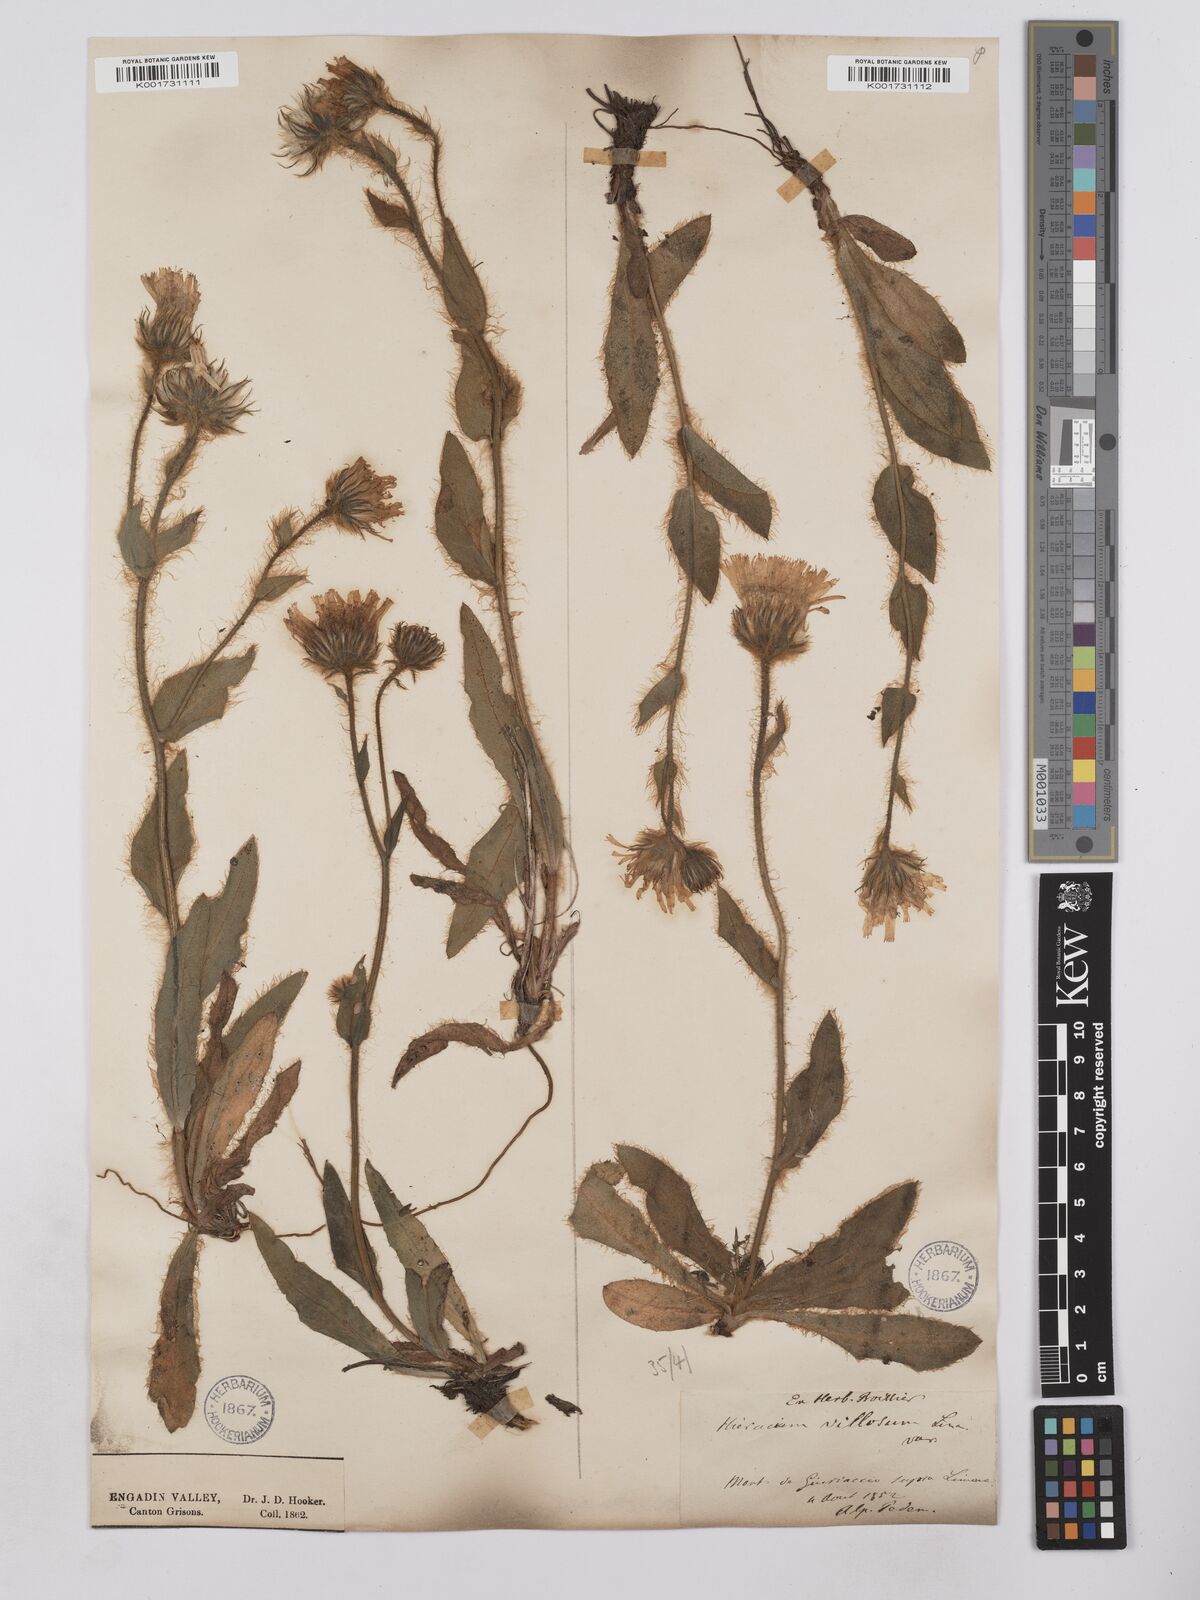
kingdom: Plantae
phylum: Tracheophyta
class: Magnoliopsida
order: Asterales
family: Asteraceae
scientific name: Asteraceae
